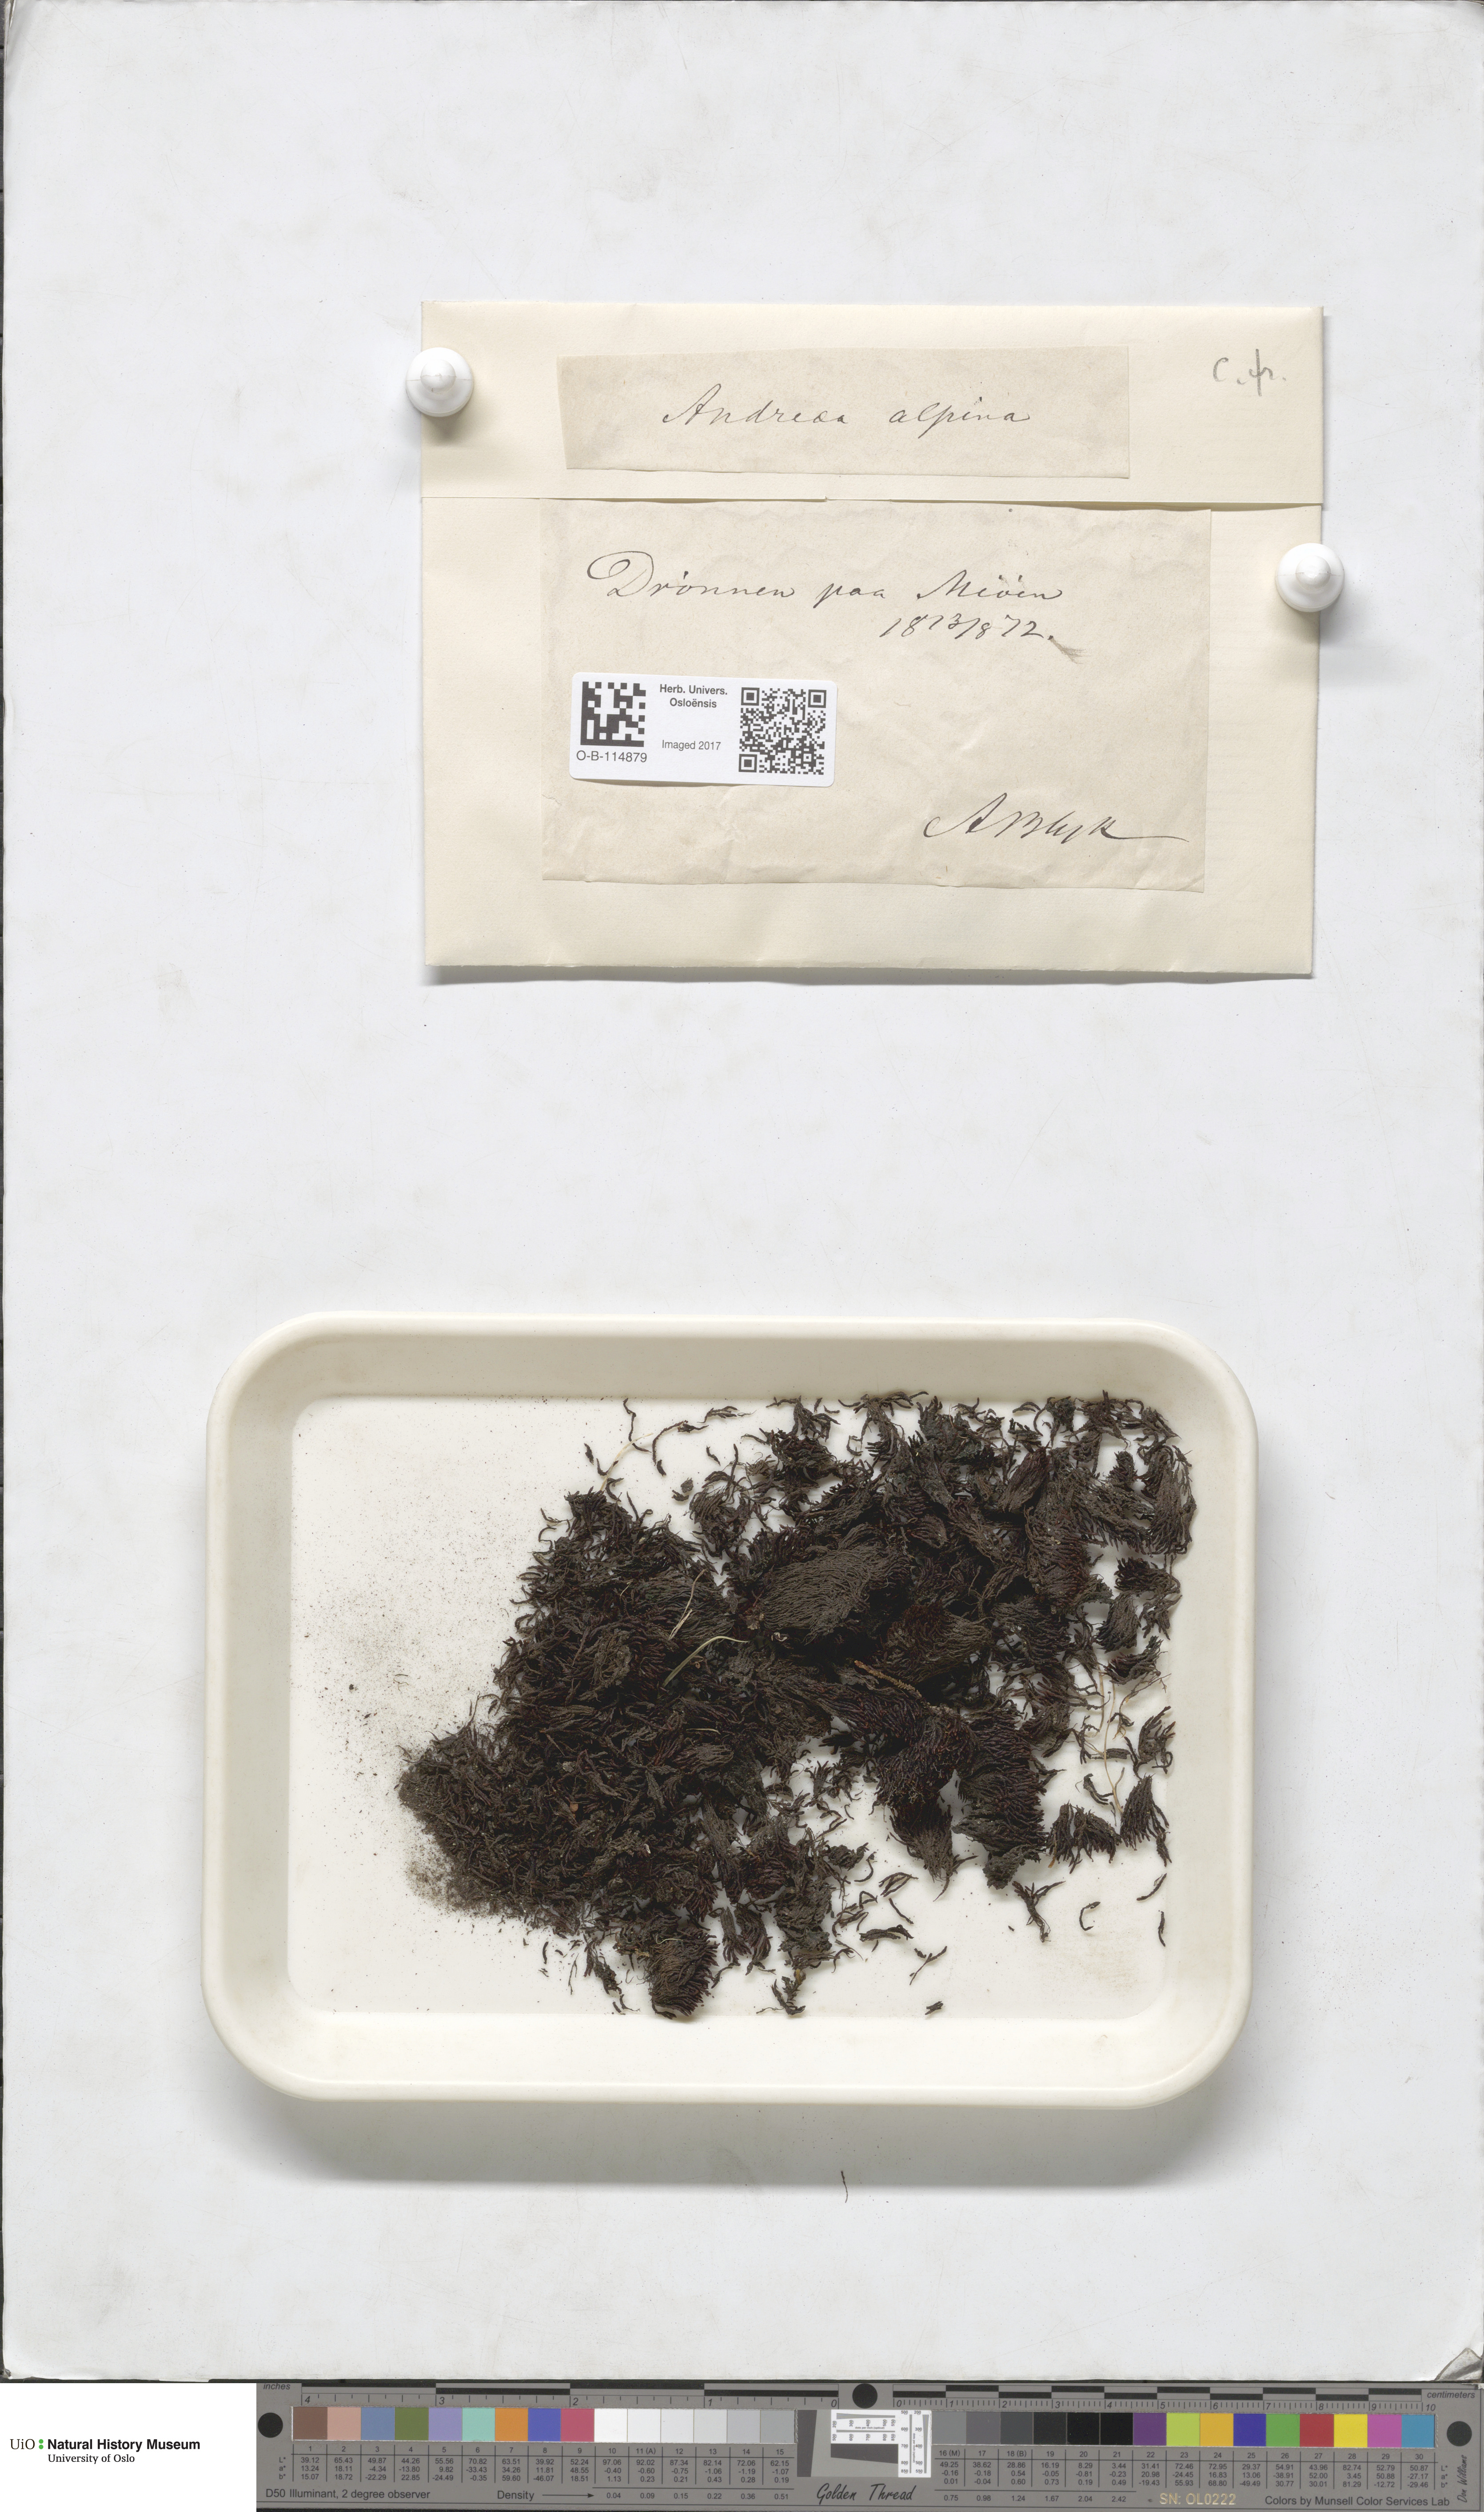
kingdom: Plantae
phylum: Bryophyta
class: Andreaeopsida
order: Andreaeales
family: Andreaeaceae
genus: Andreaea
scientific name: Andreaea hookeri
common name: Alpine rock-moss
